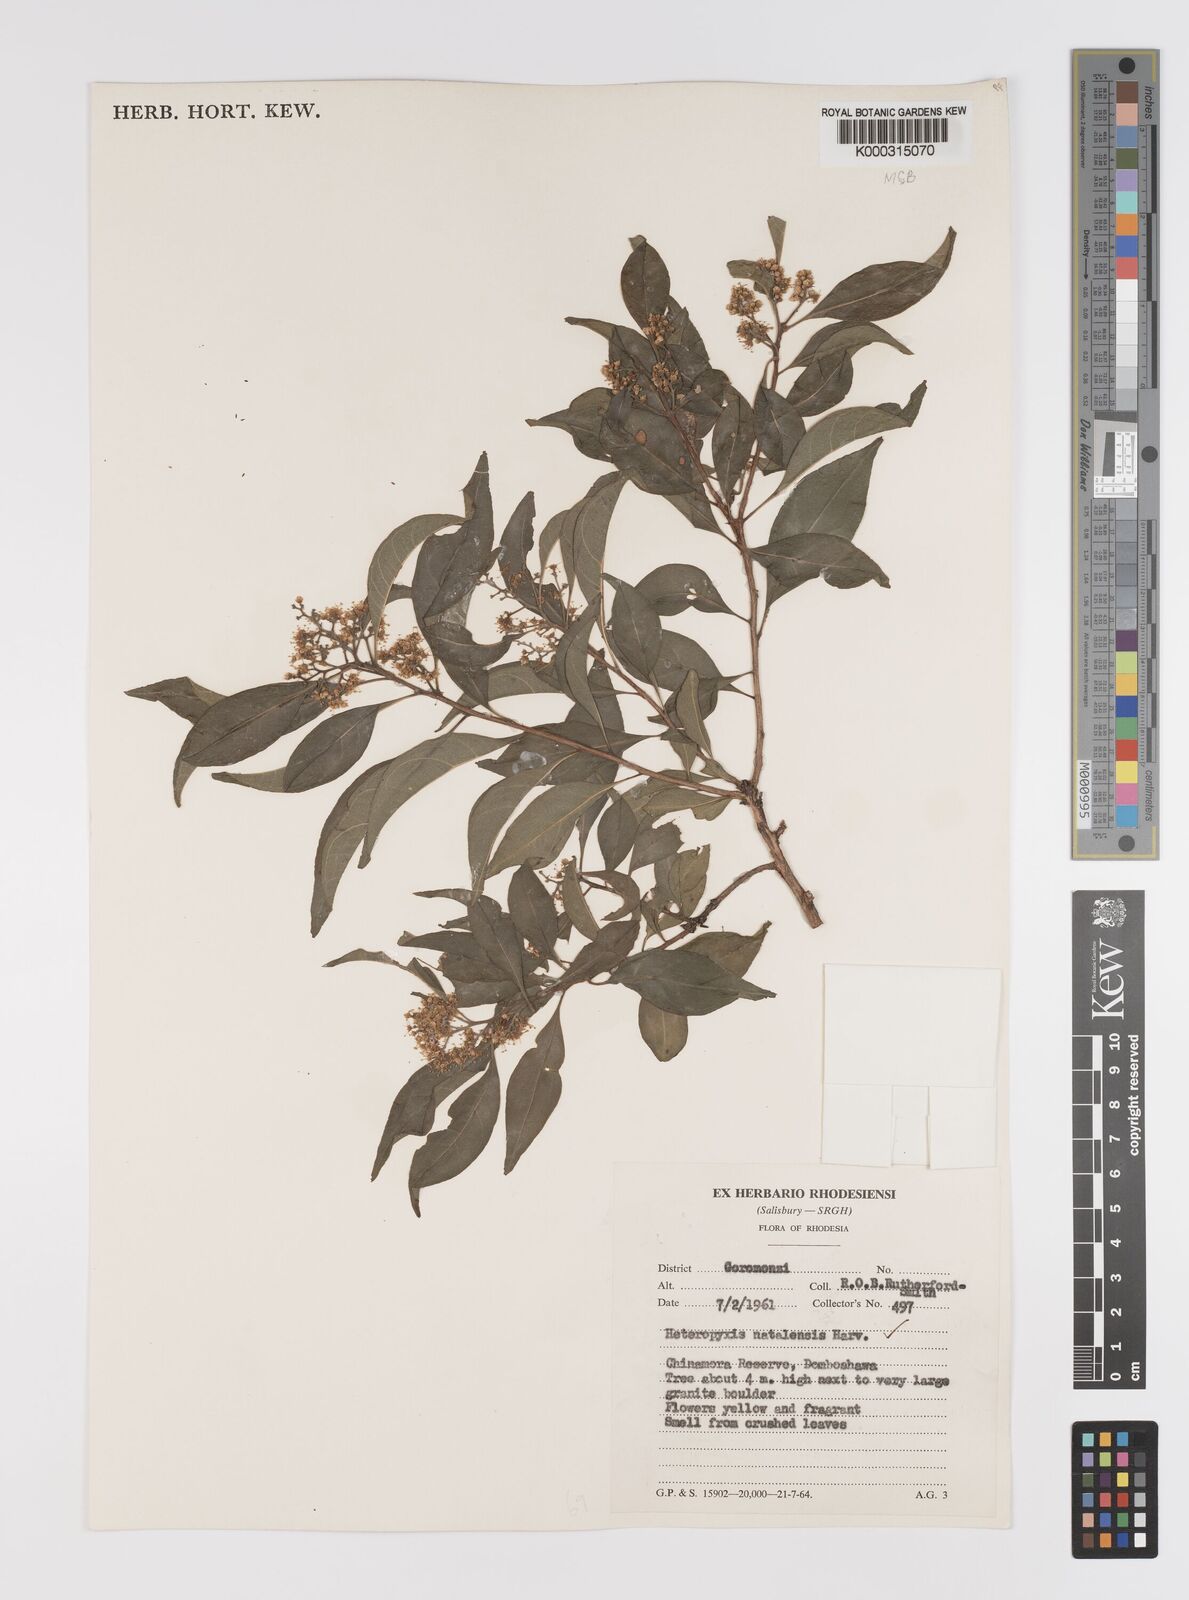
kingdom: Plantae
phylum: Tracheophyta
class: Magnoliopsida
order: Myrtales
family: Myrtaceae
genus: Heteropyxis
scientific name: Heteropyxis dehniae
